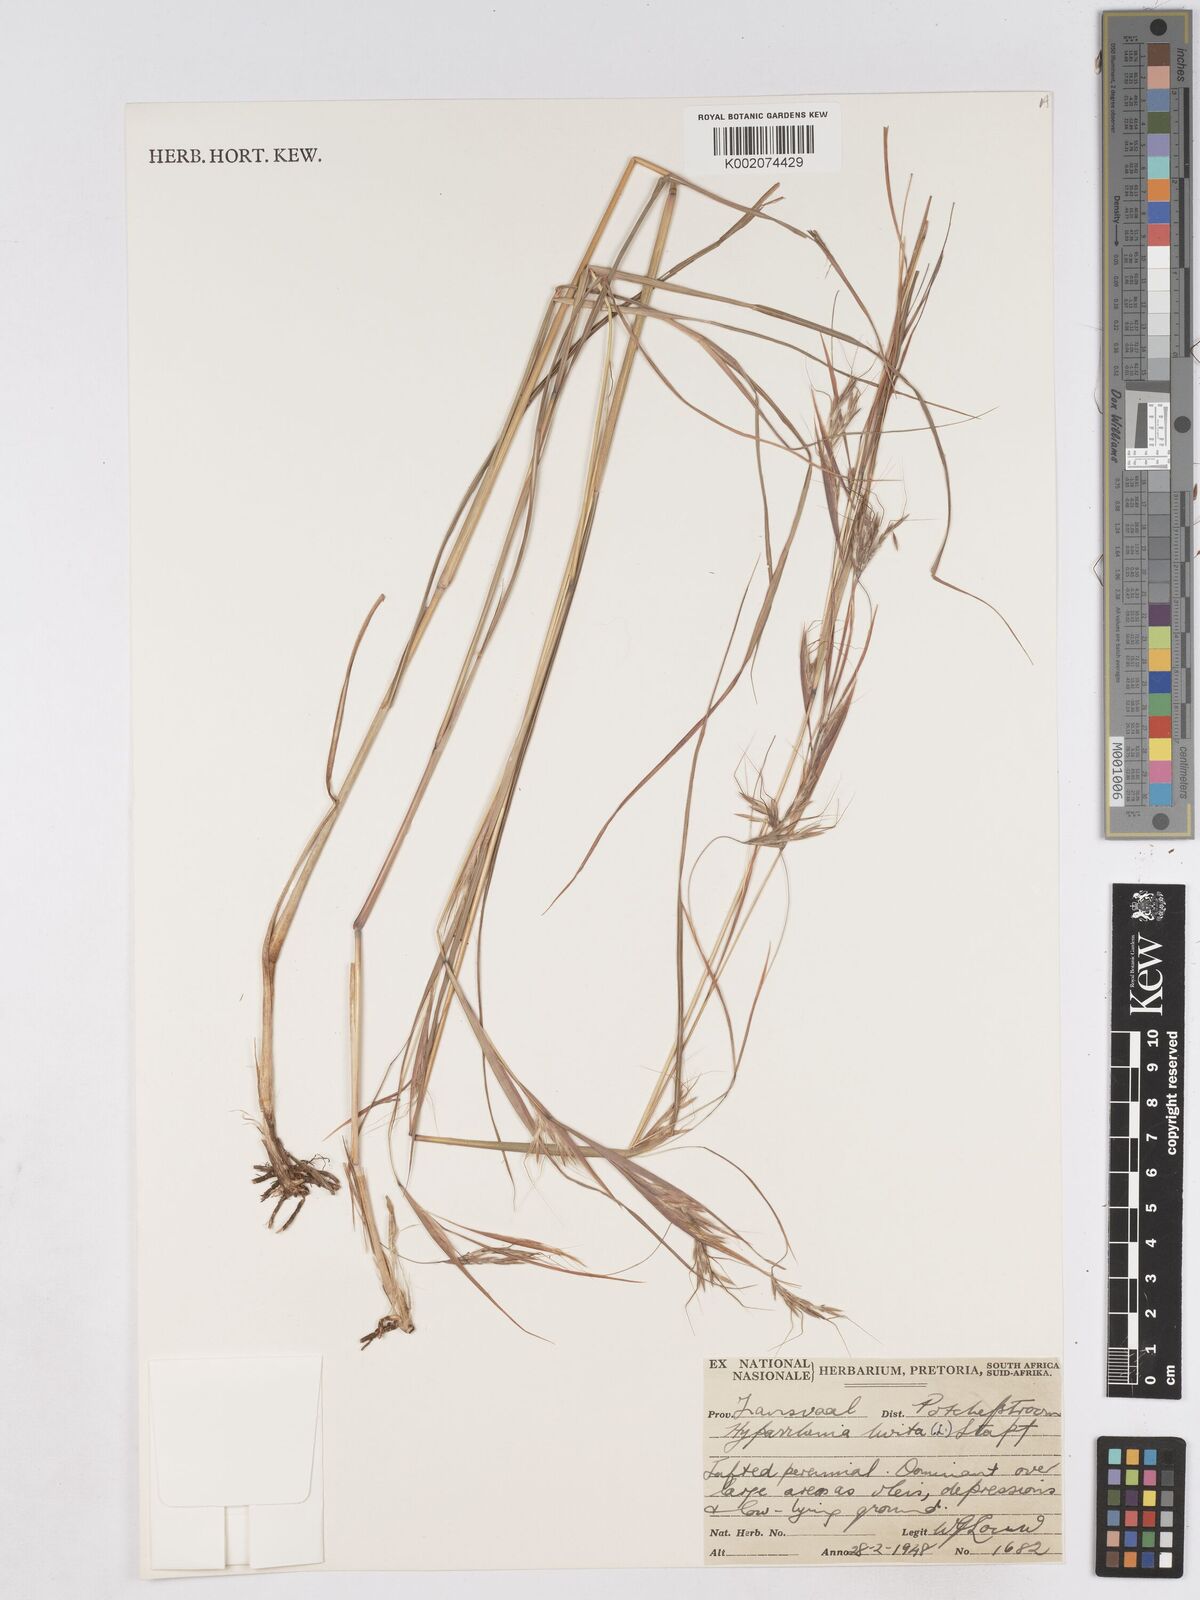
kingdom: Plantae
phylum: Tracheophyta
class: Liliopsida
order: Poales
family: Poaceae
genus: Hyparrhenia
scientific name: Hyparrhenia hirta
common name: Thatching grass
